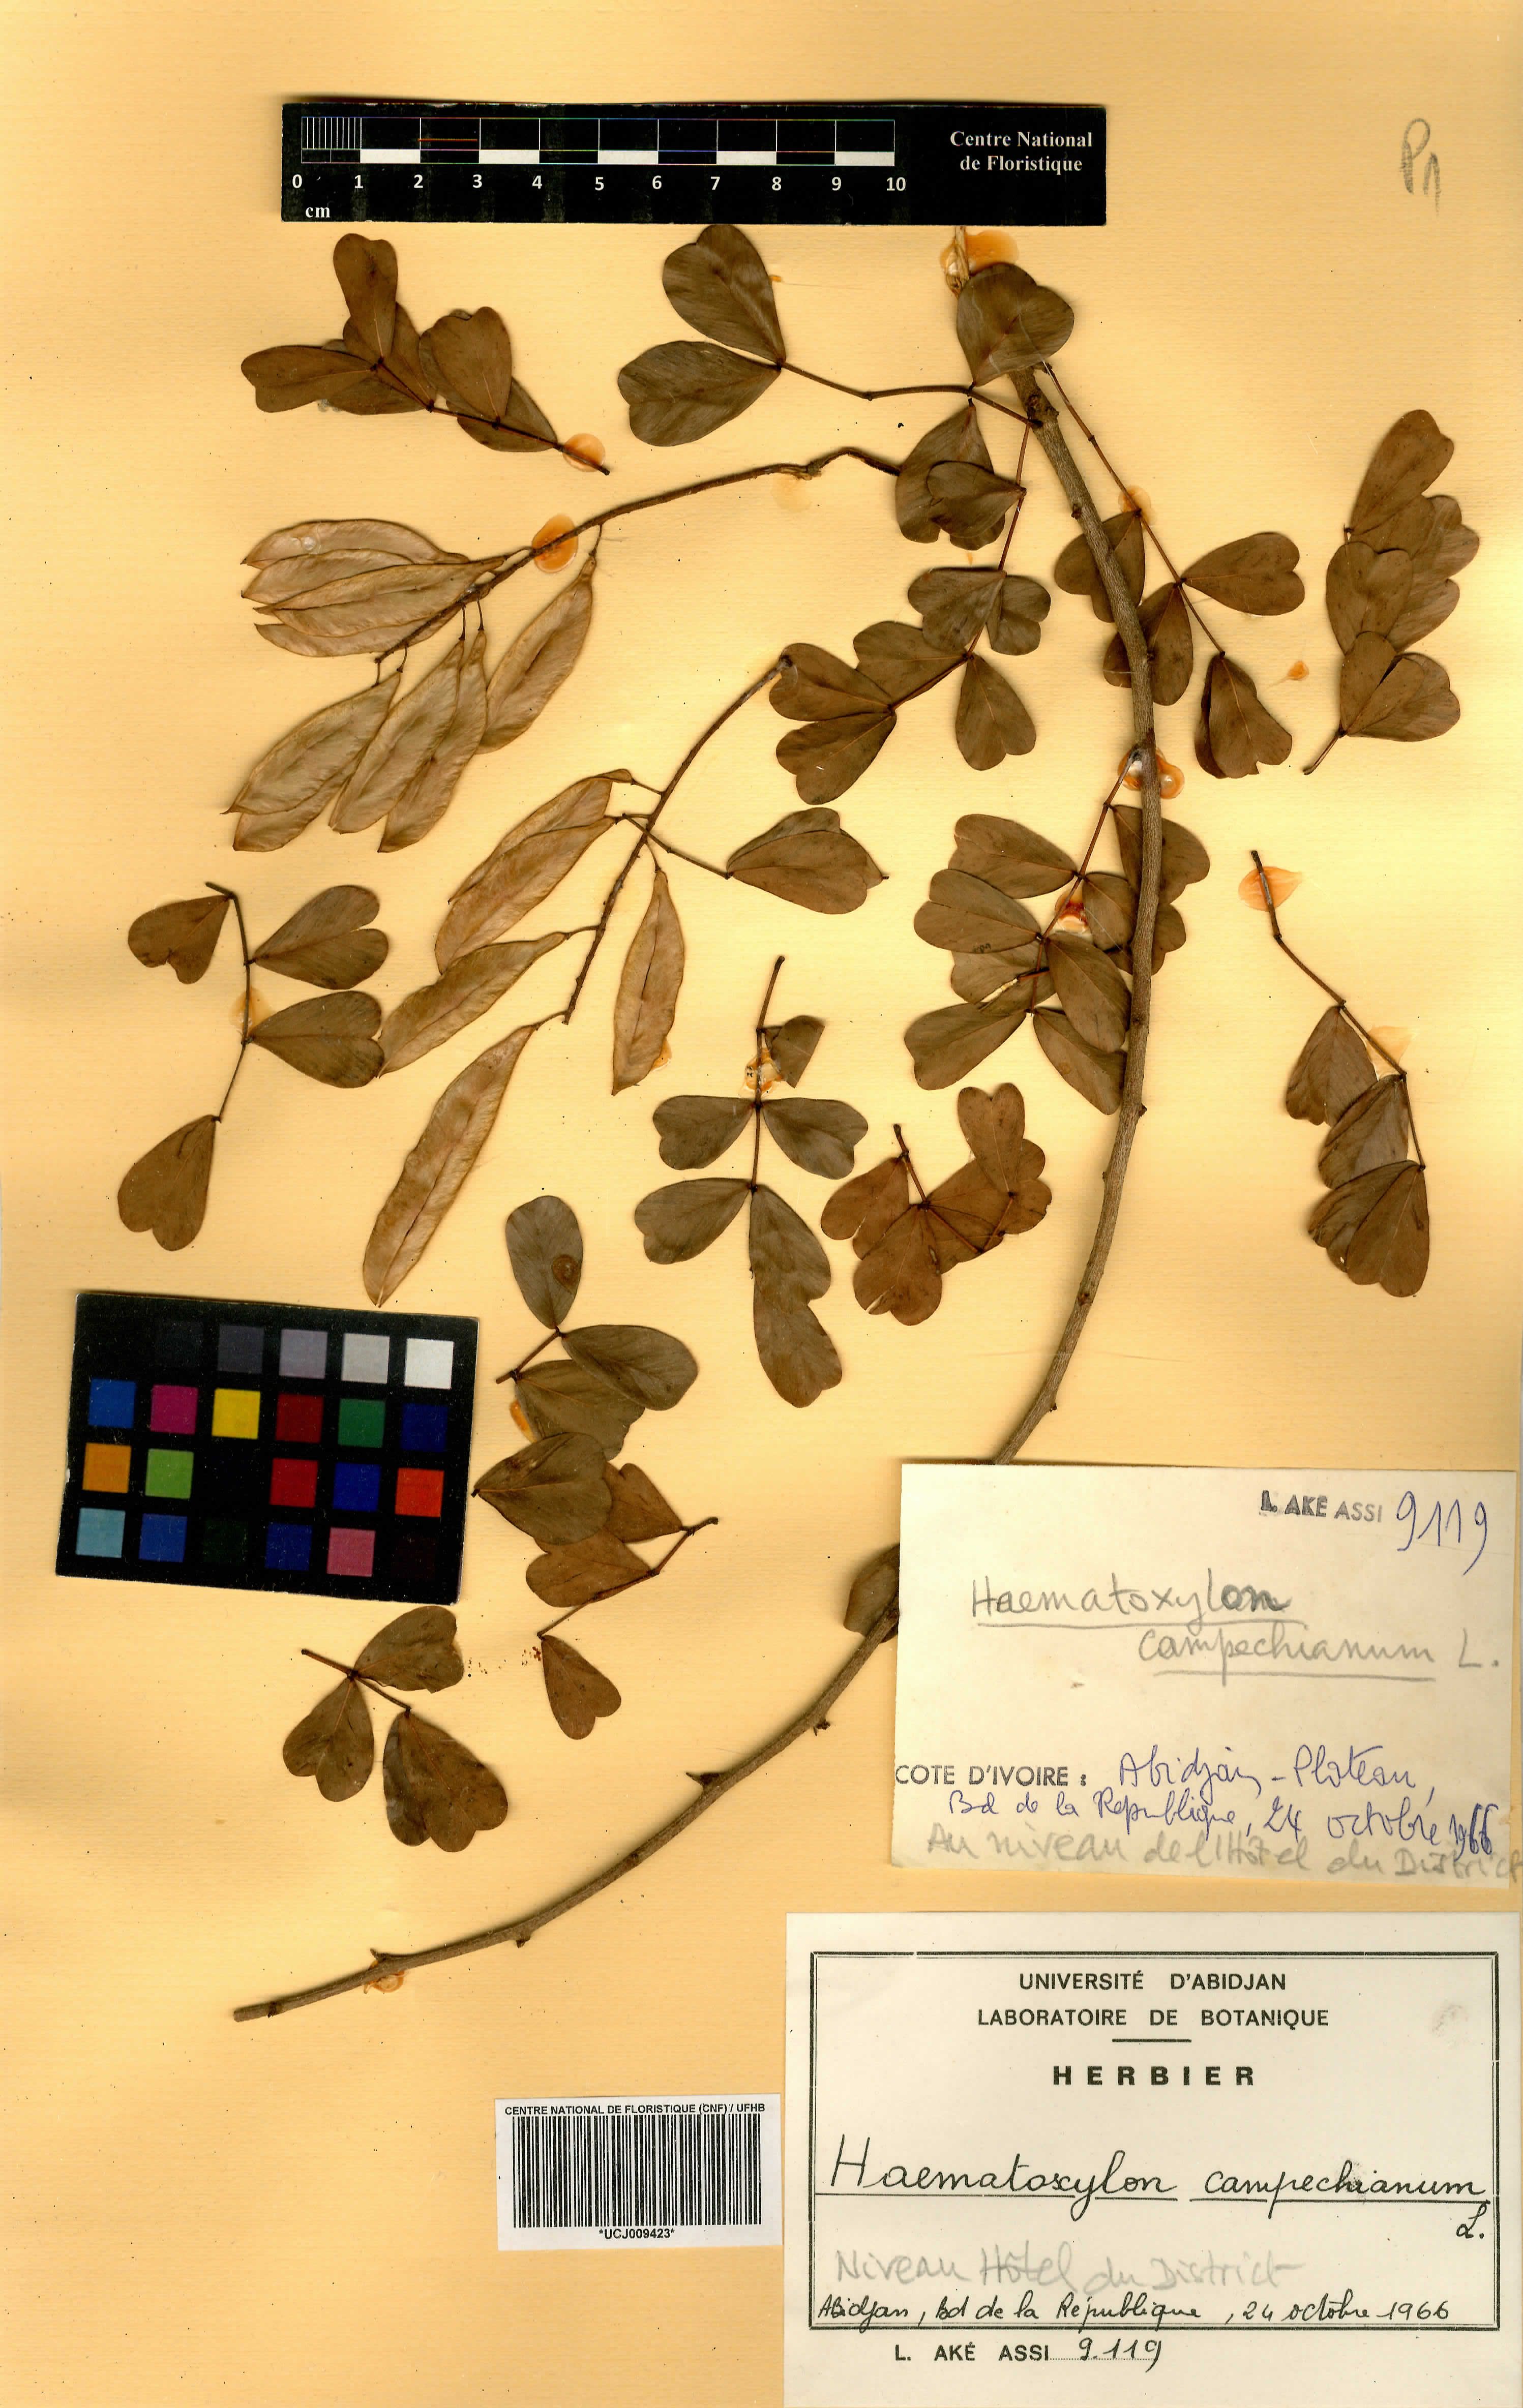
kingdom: Plantae
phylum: Tracheophyta
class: Magnoliopsida
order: Fabales
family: Fabaceae
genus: Haematoxylum
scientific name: Haematoxylum campechianum
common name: Logwood
